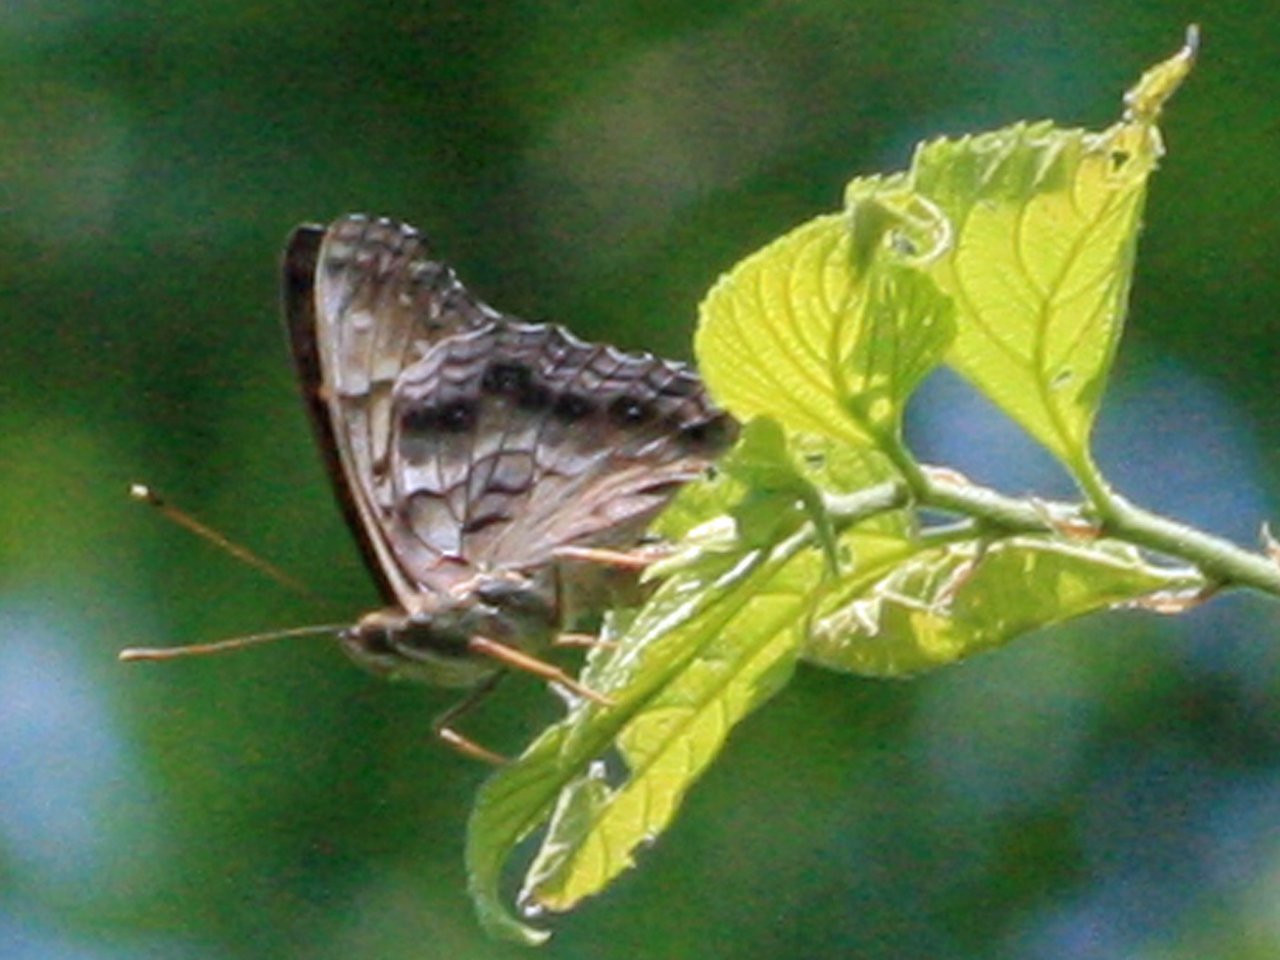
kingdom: Animalia
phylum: Arthropoda
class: Insecta
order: Lepidoptera
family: Nymphalidae
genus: Asterocampa
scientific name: Asterocampa clyton
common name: Tawny Emperor
